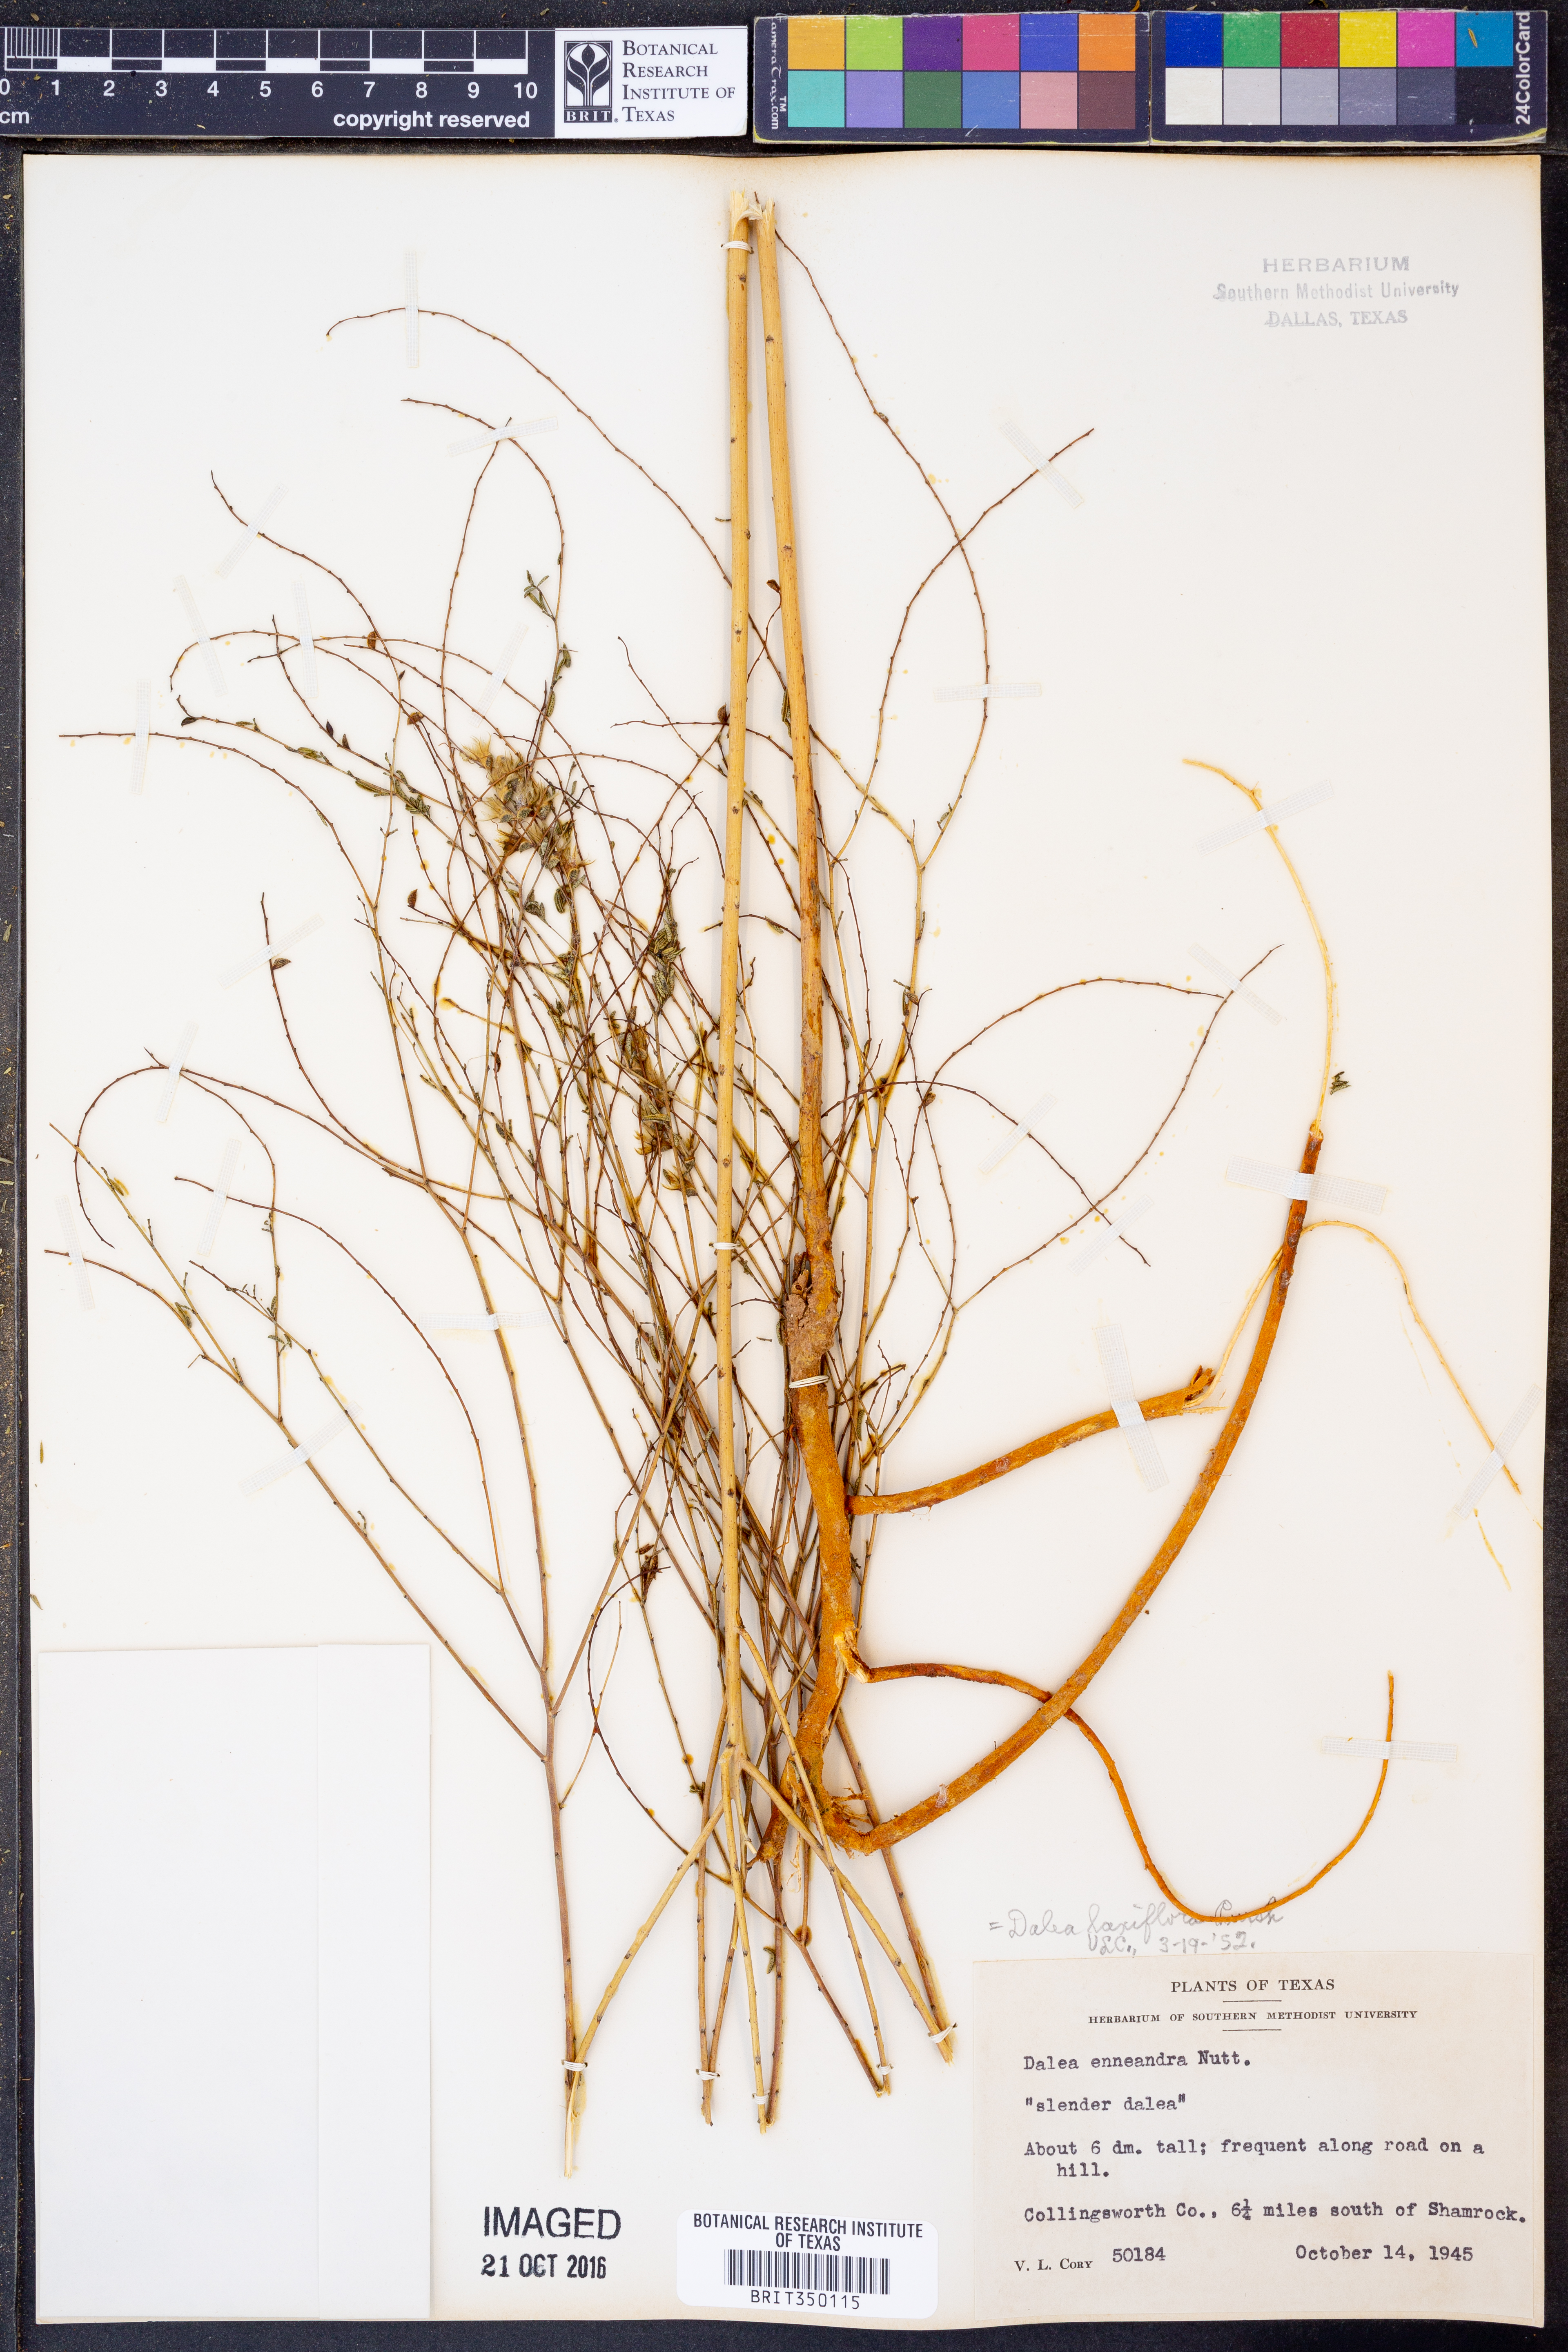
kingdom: Plantae
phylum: Tracheophyta
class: Magnoliopsida
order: Fabales
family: Fabaceae
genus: Dalea
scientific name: Dalea hegewischiana
